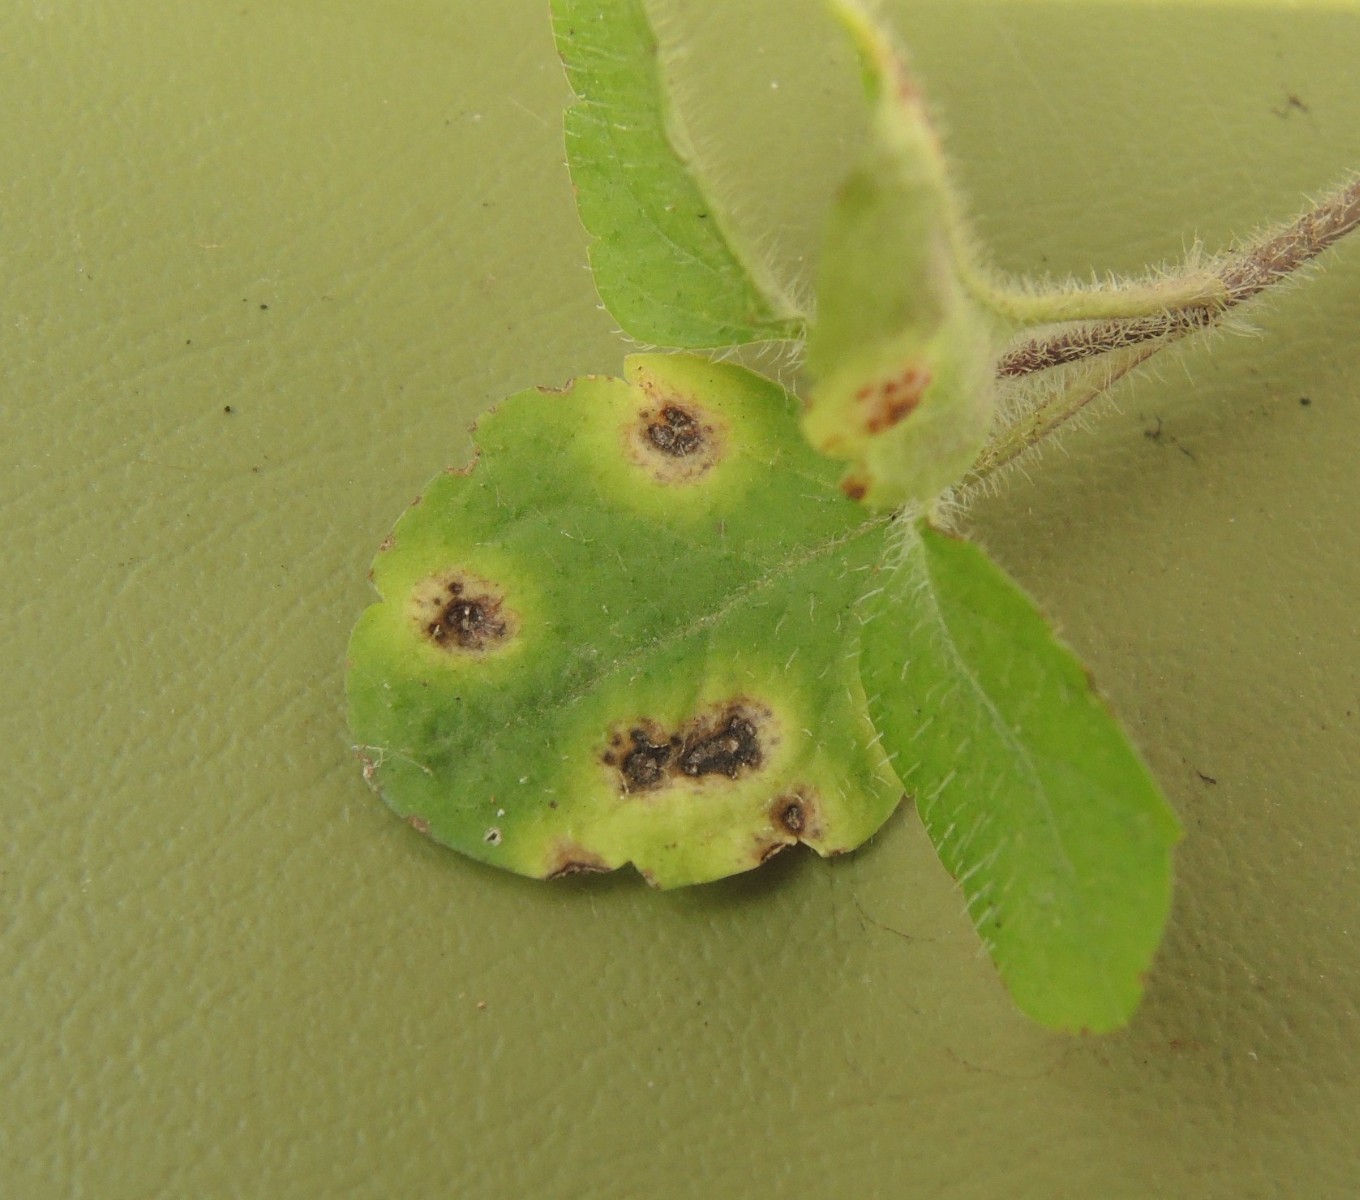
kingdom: Fungi
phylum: Basidiomycota
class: Pucciniomycetes
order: Pucciniales
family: Pucciniaceae
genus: Puccinia
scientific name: Puccinia glechomatis
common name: Ground ivy rust
